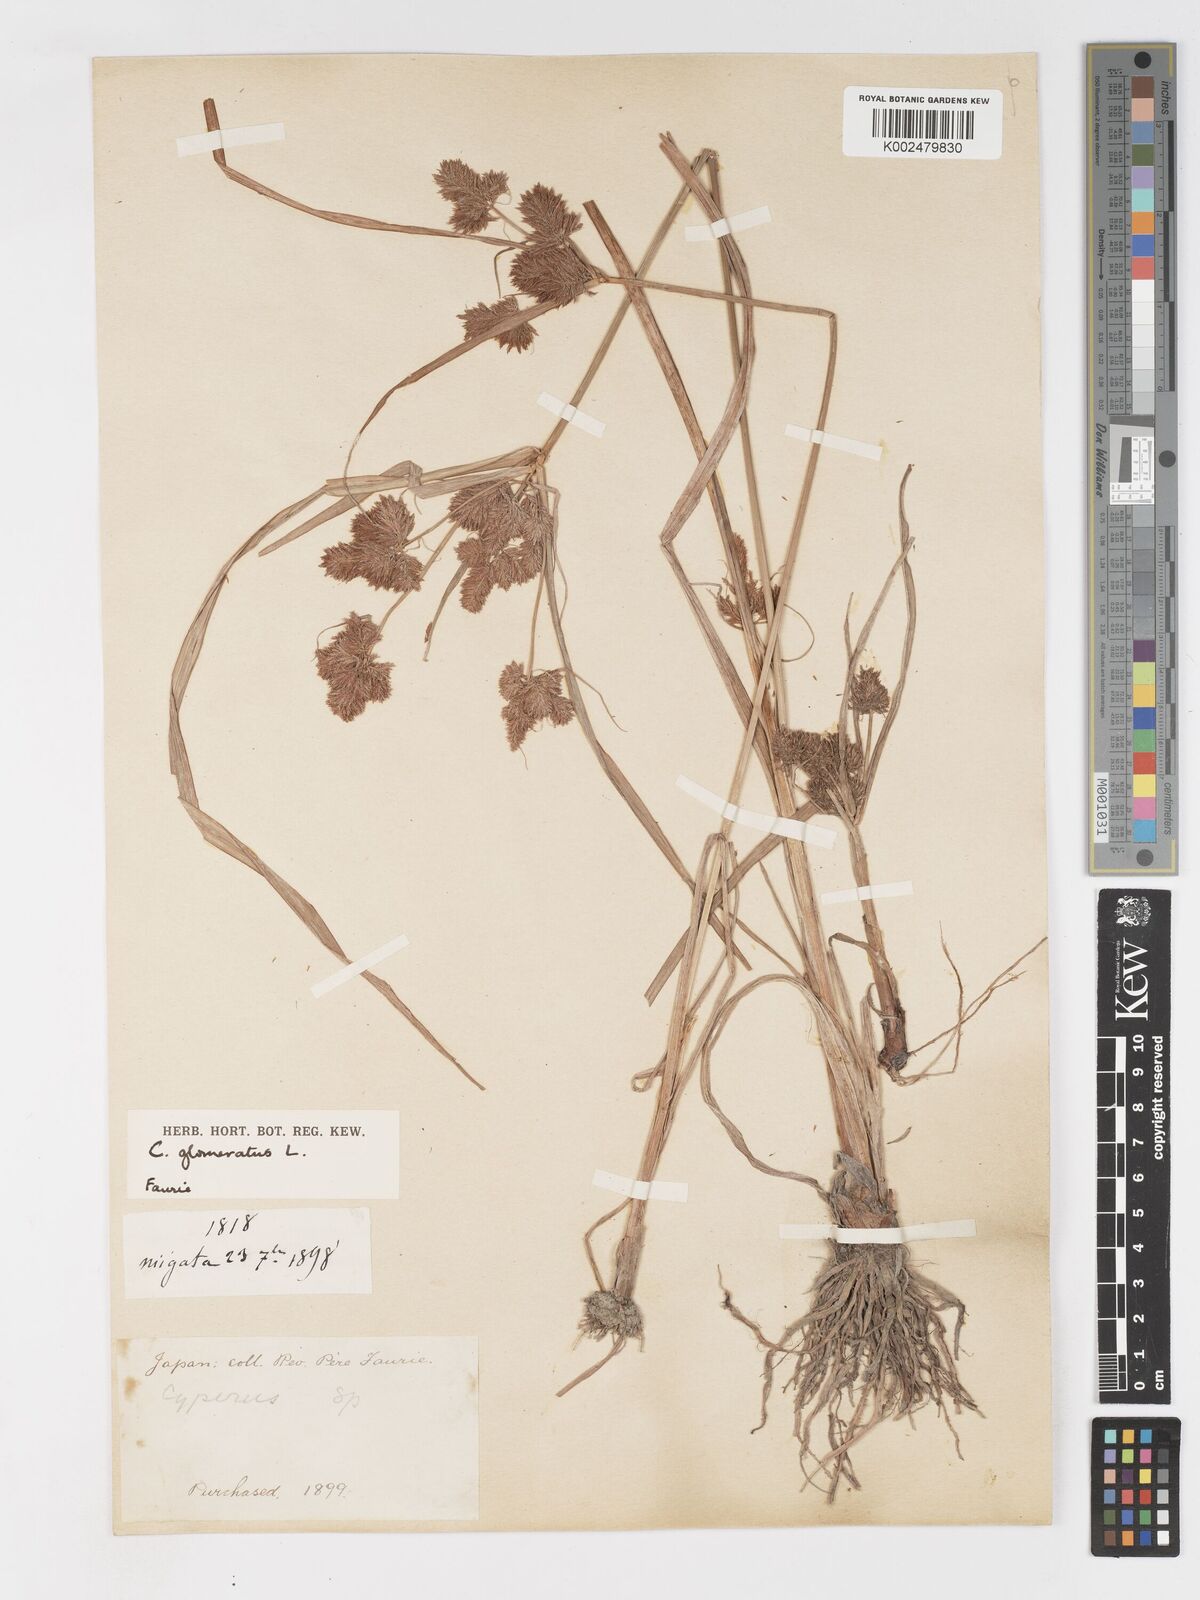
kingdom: Plantae
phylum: Tracheophyta
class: Liliopsida
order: Poales
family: Cyperaceae
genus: Cyperus
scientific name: Cyperus glomeratus
